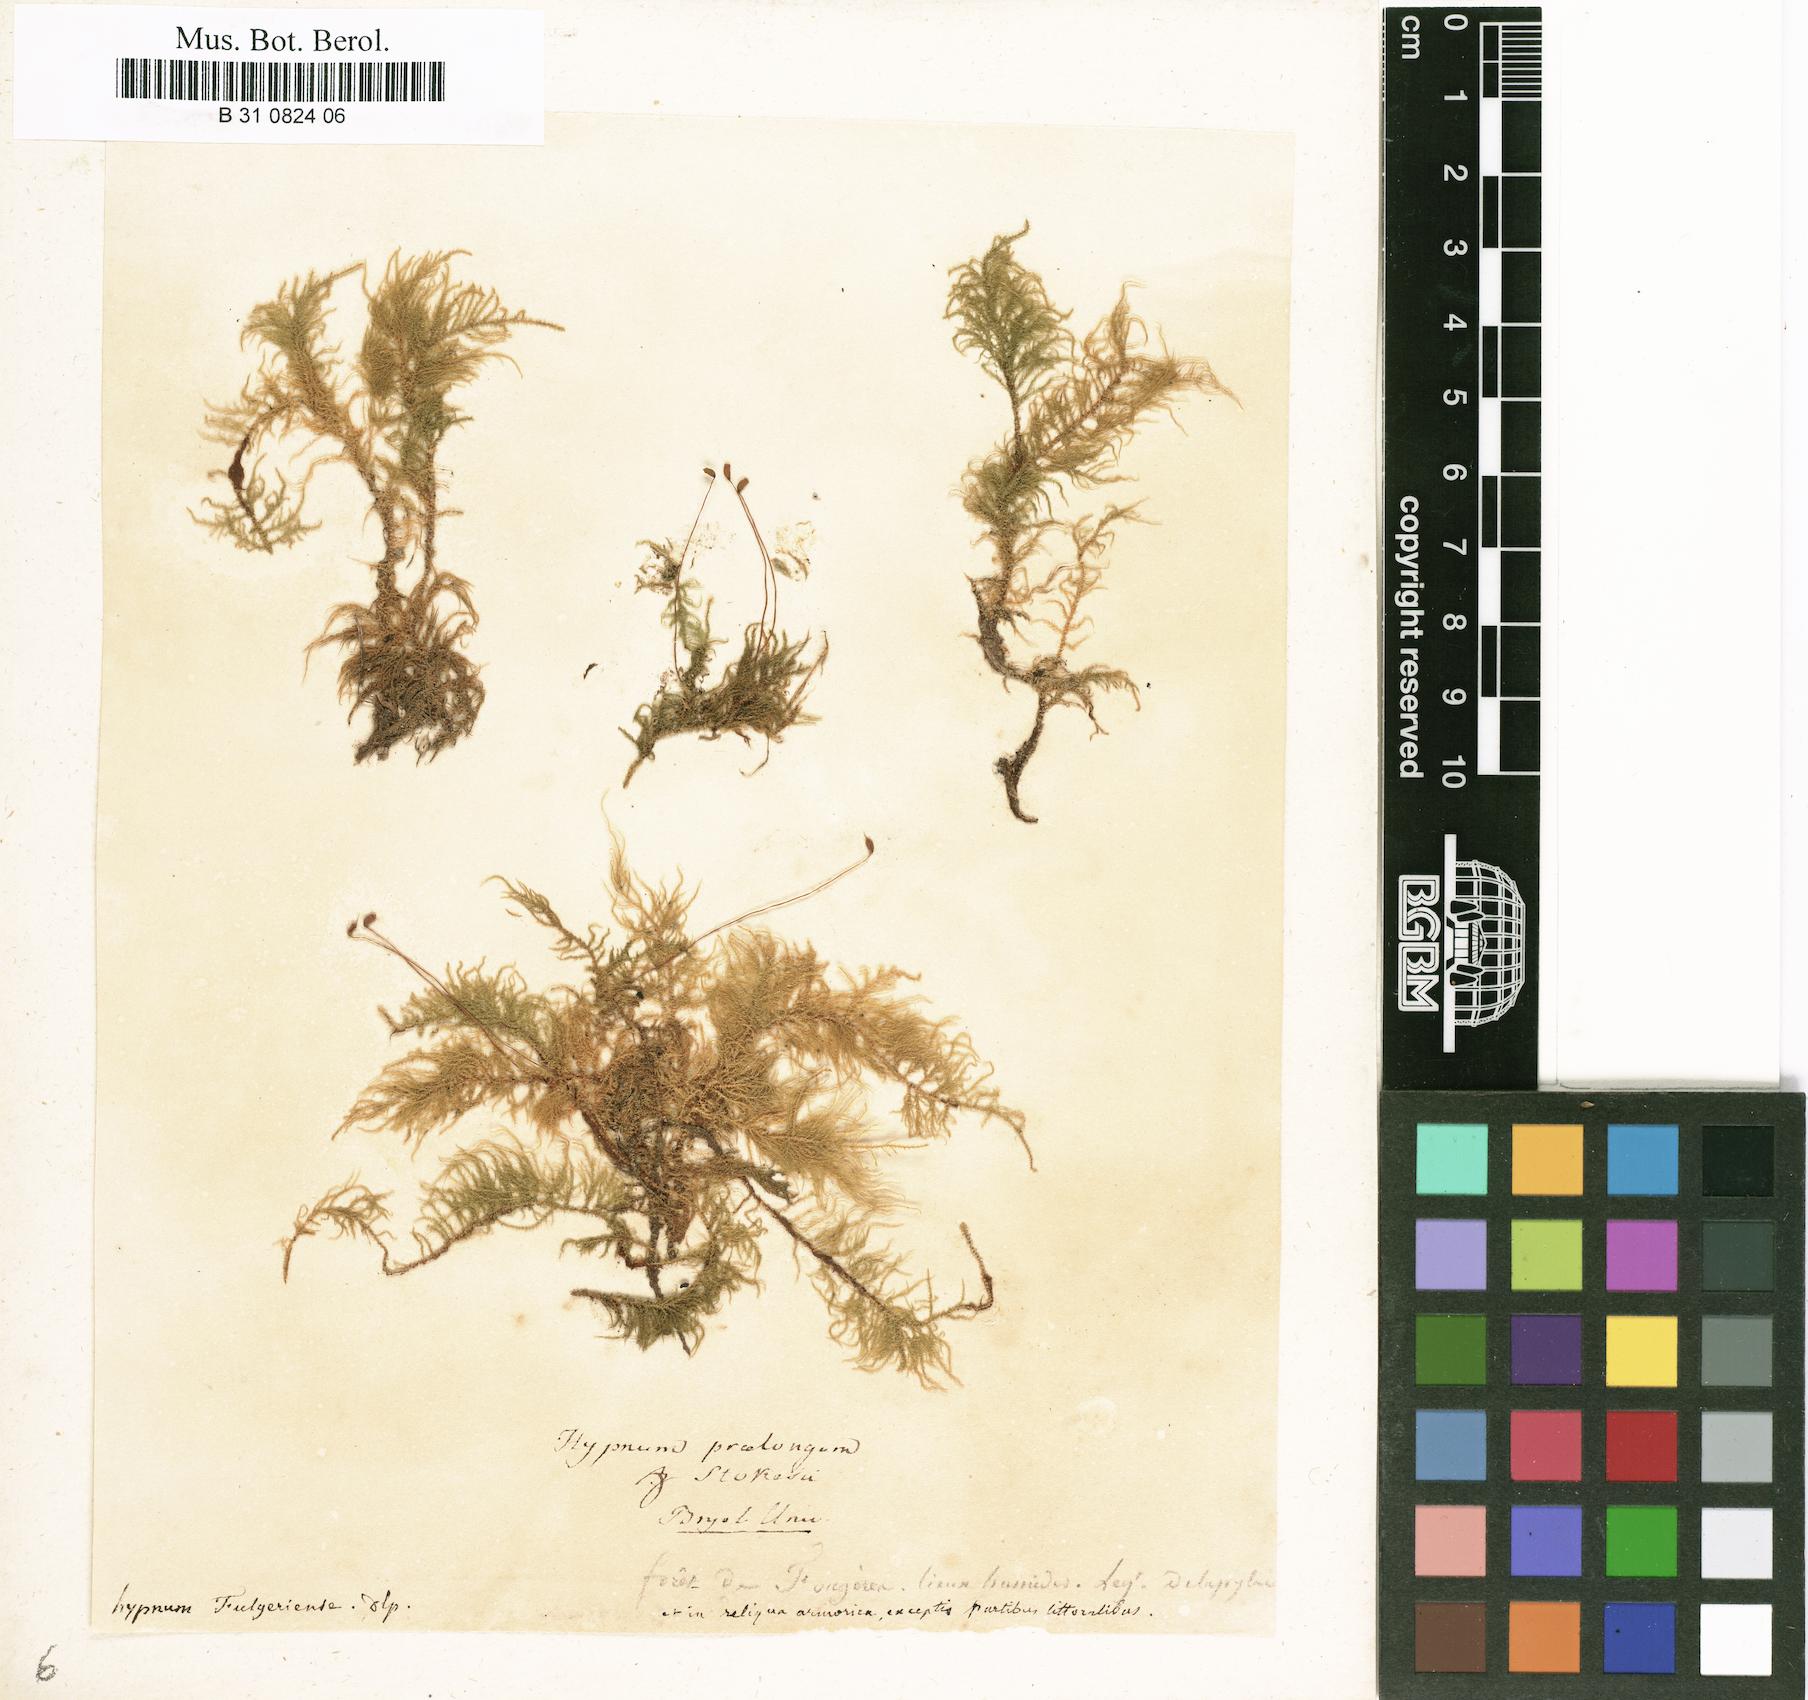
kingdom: Plantae
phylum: Bryophyta
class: Bryopsida
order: Hypnales
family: Brachytheciaceae
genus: Kindbergia
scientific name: Kindbergia praelonga
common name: Slender beaked moss
